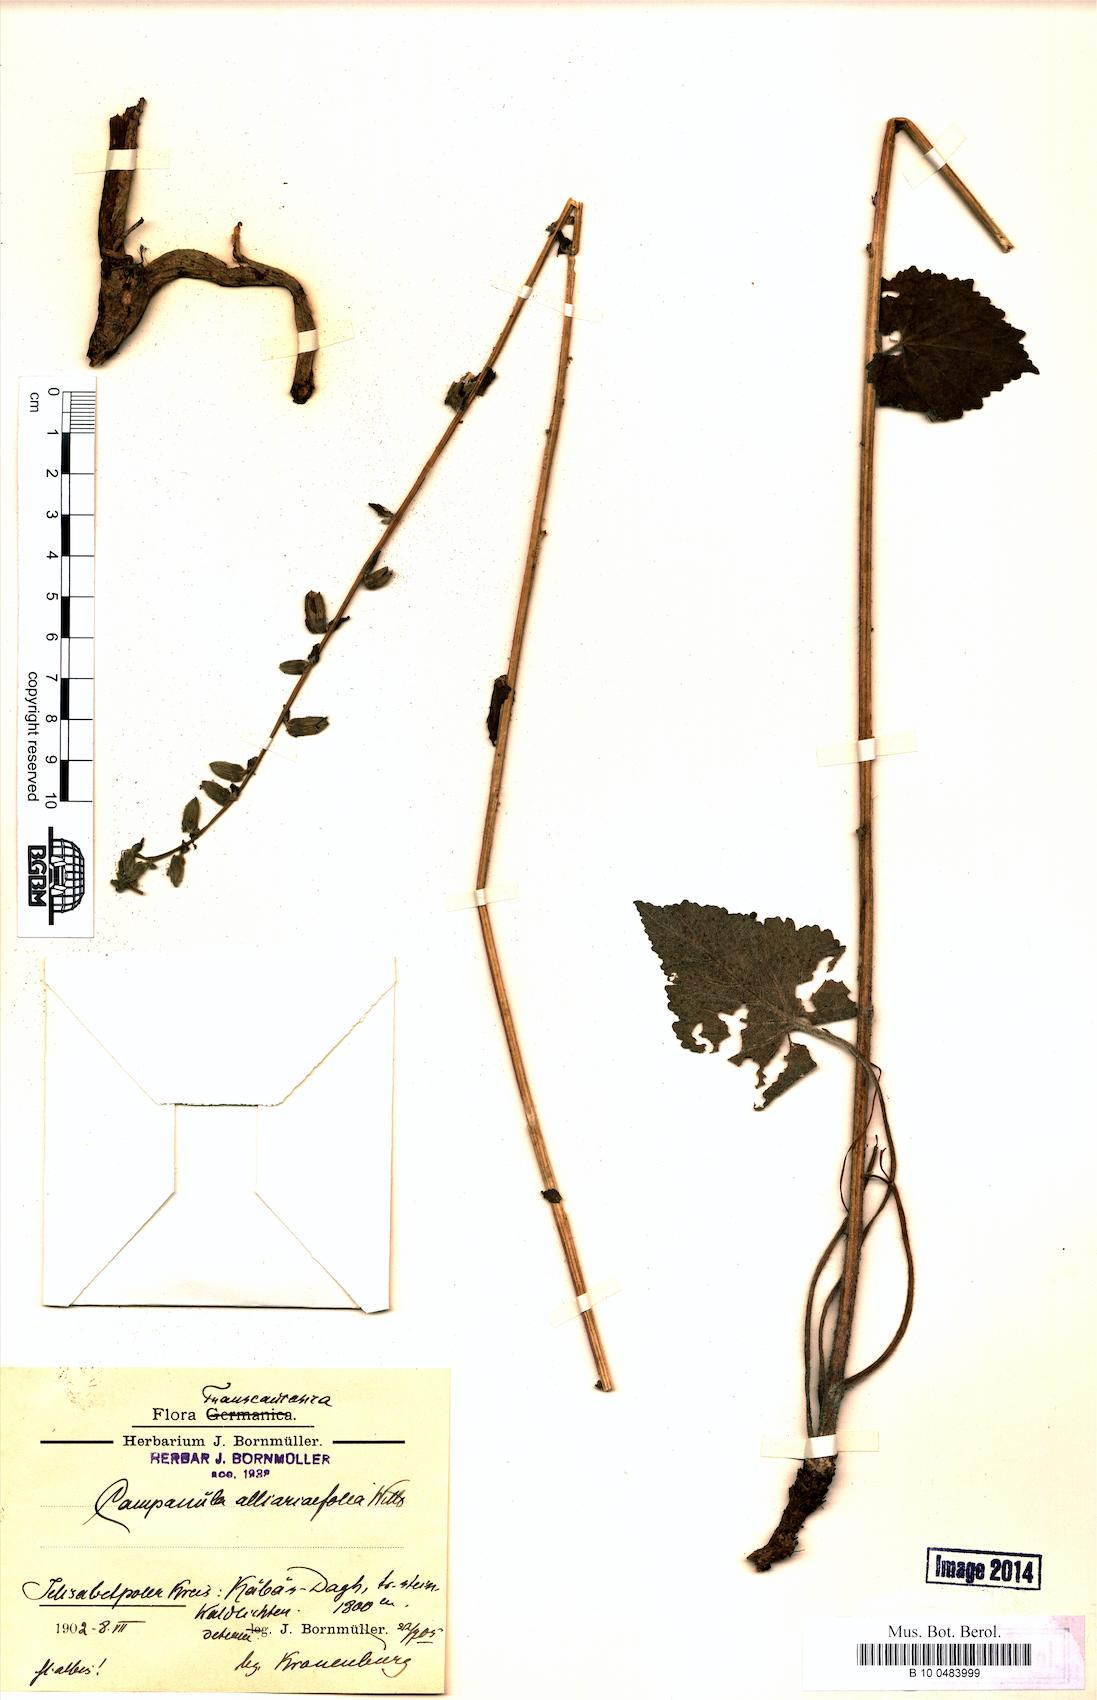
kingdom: Plantae
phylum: Tracheophyta
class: Magnoliopsida
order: Asterales
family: Campanulaceae
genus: Campanula
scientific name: Campanula alliariifolia
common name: Cornish bellflower
